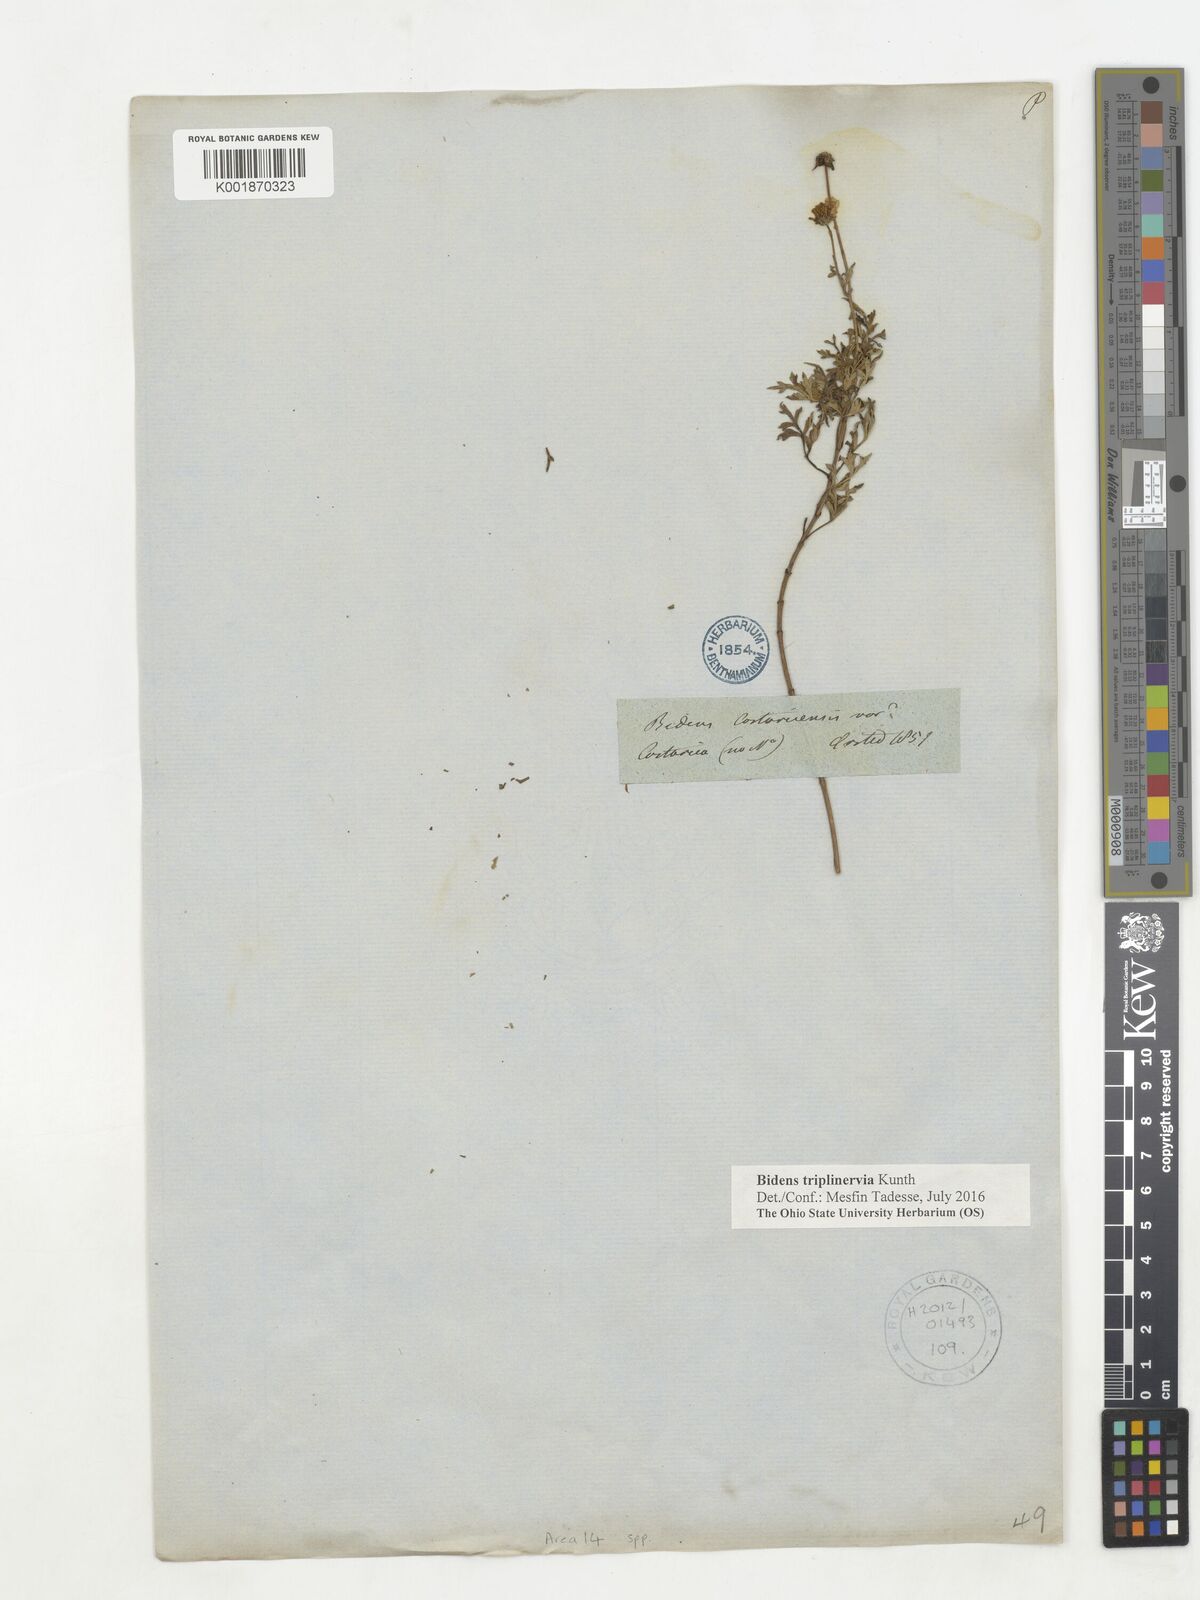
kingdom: Plantae
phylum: Tracheophyta
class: Magnoliopsida
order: Asterales
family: Asteraceae
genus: Bidens
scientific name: Bidens triplinervia
